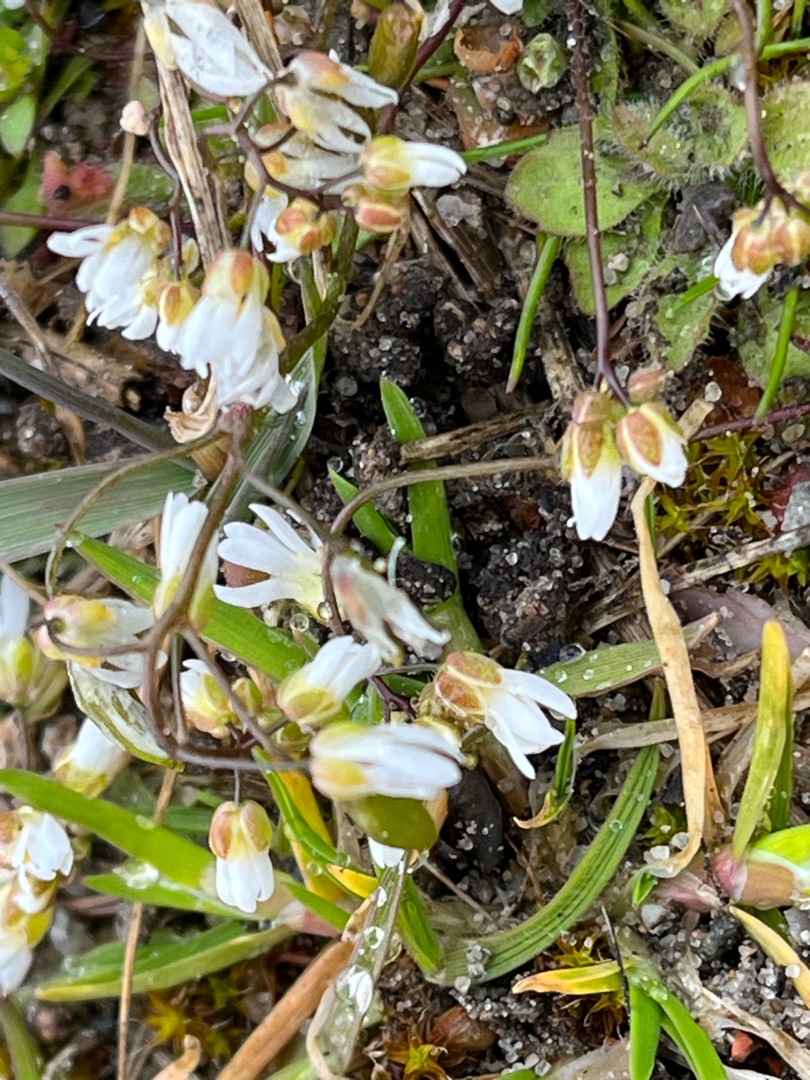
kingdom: Plantae
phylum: Tracheophyta
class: Magnoliopsida
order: Brassicales
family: Brassicaceae
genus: Draba
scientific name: Draba verna
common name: Vår-gæslingeblomst
